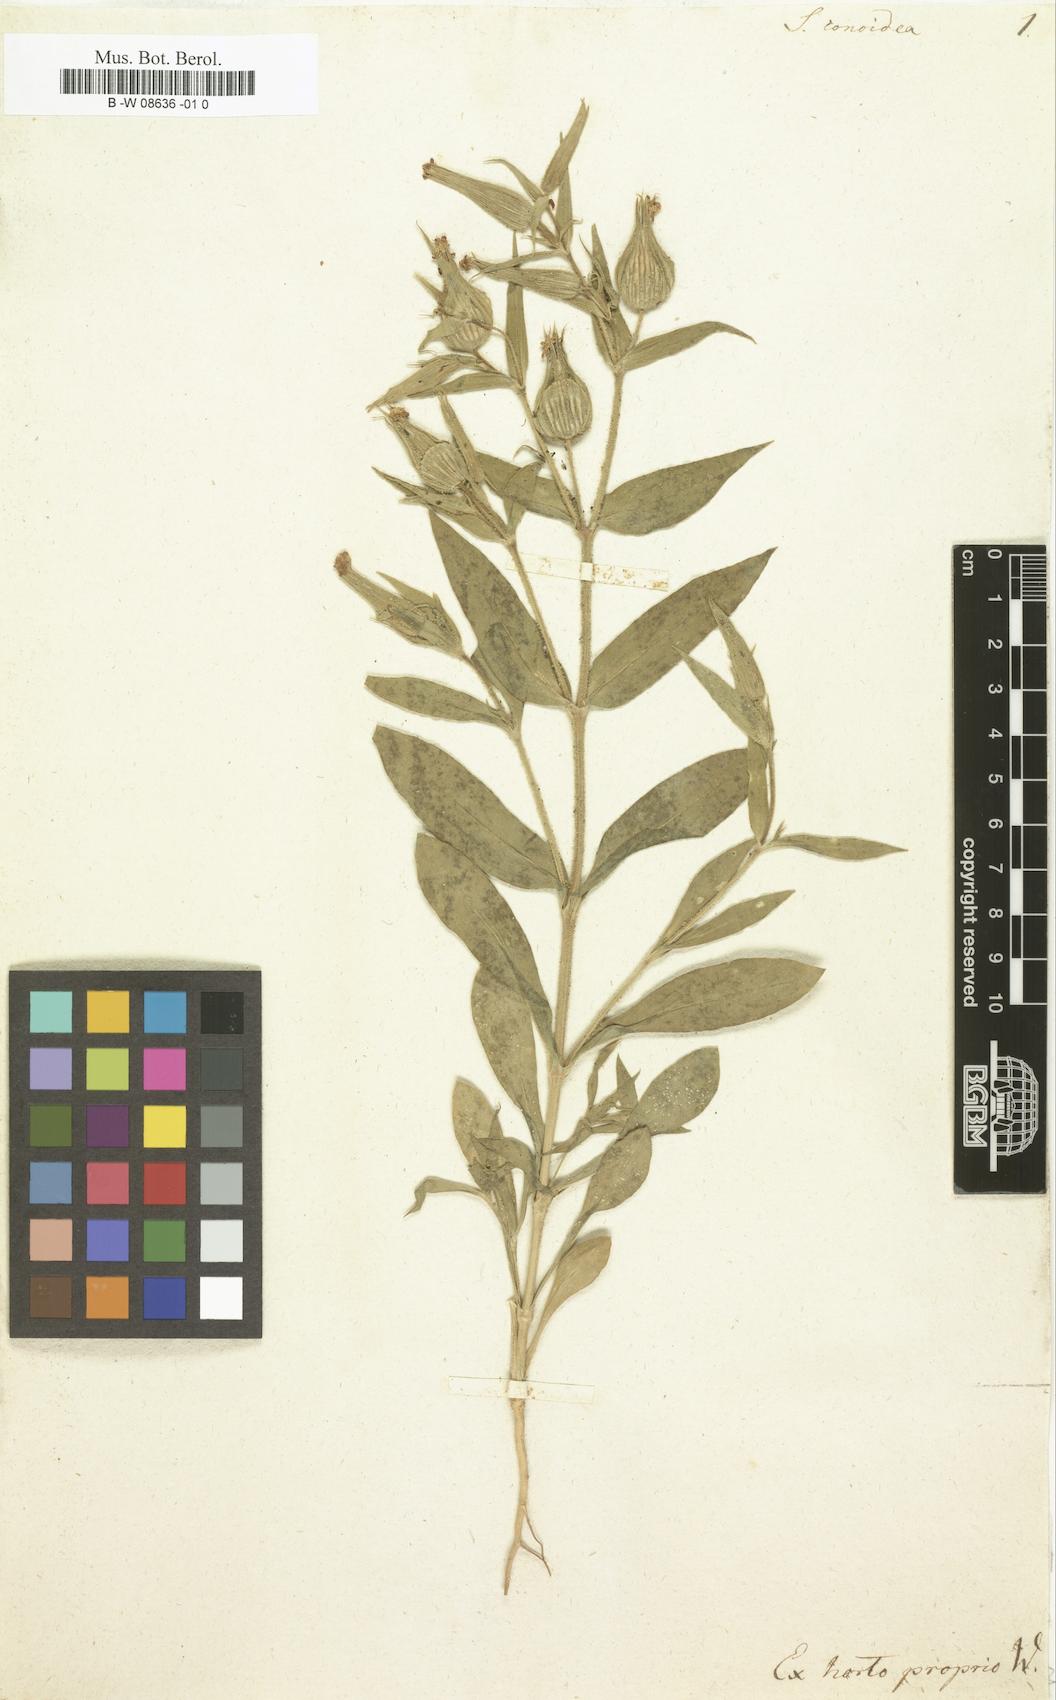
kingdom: Plantae
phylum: Tracheophyta
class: Magnoliopsida
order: Caryophyllales
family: Caryophyllaceae
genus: Silene
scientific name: Silene conoidea
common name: Weed silene
